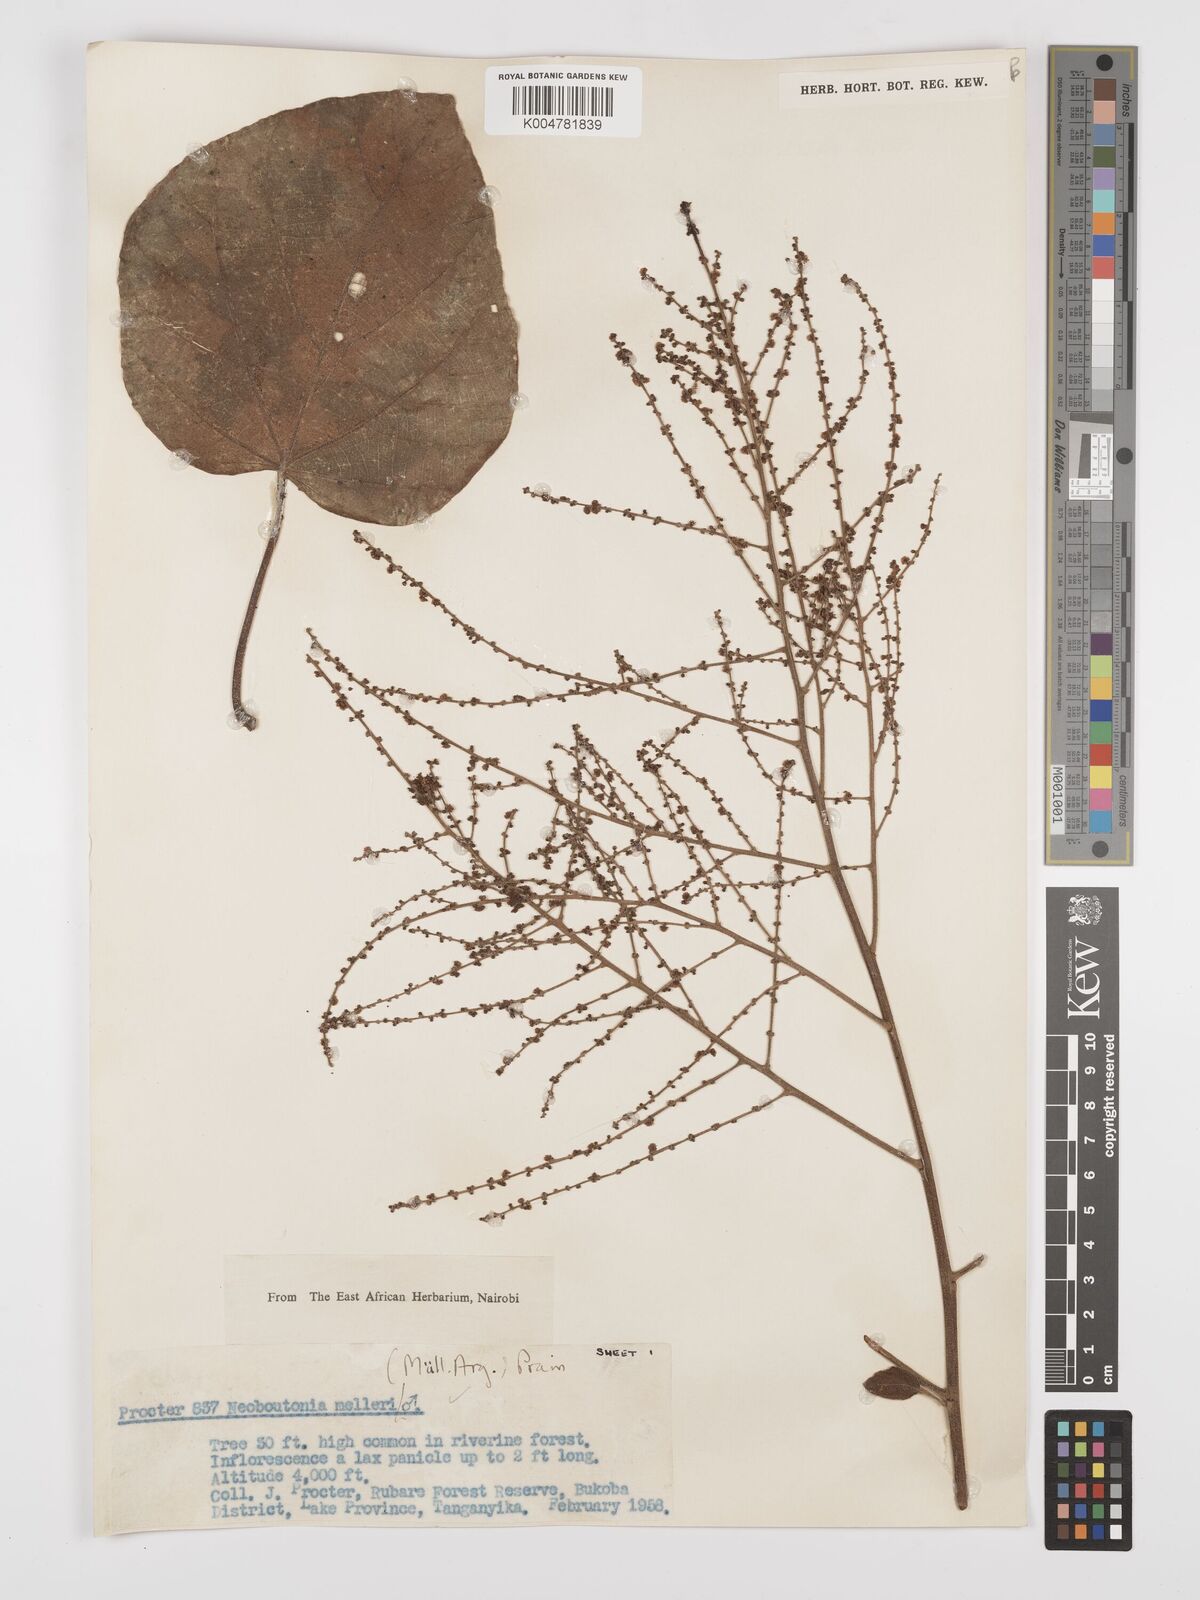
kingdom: Plantae
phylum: Tracheophyta
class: Magnoliopsida
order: Malpighiales
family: Euphorbiaceae
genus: Neoboutonia
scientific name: Neoboutonia melleri
